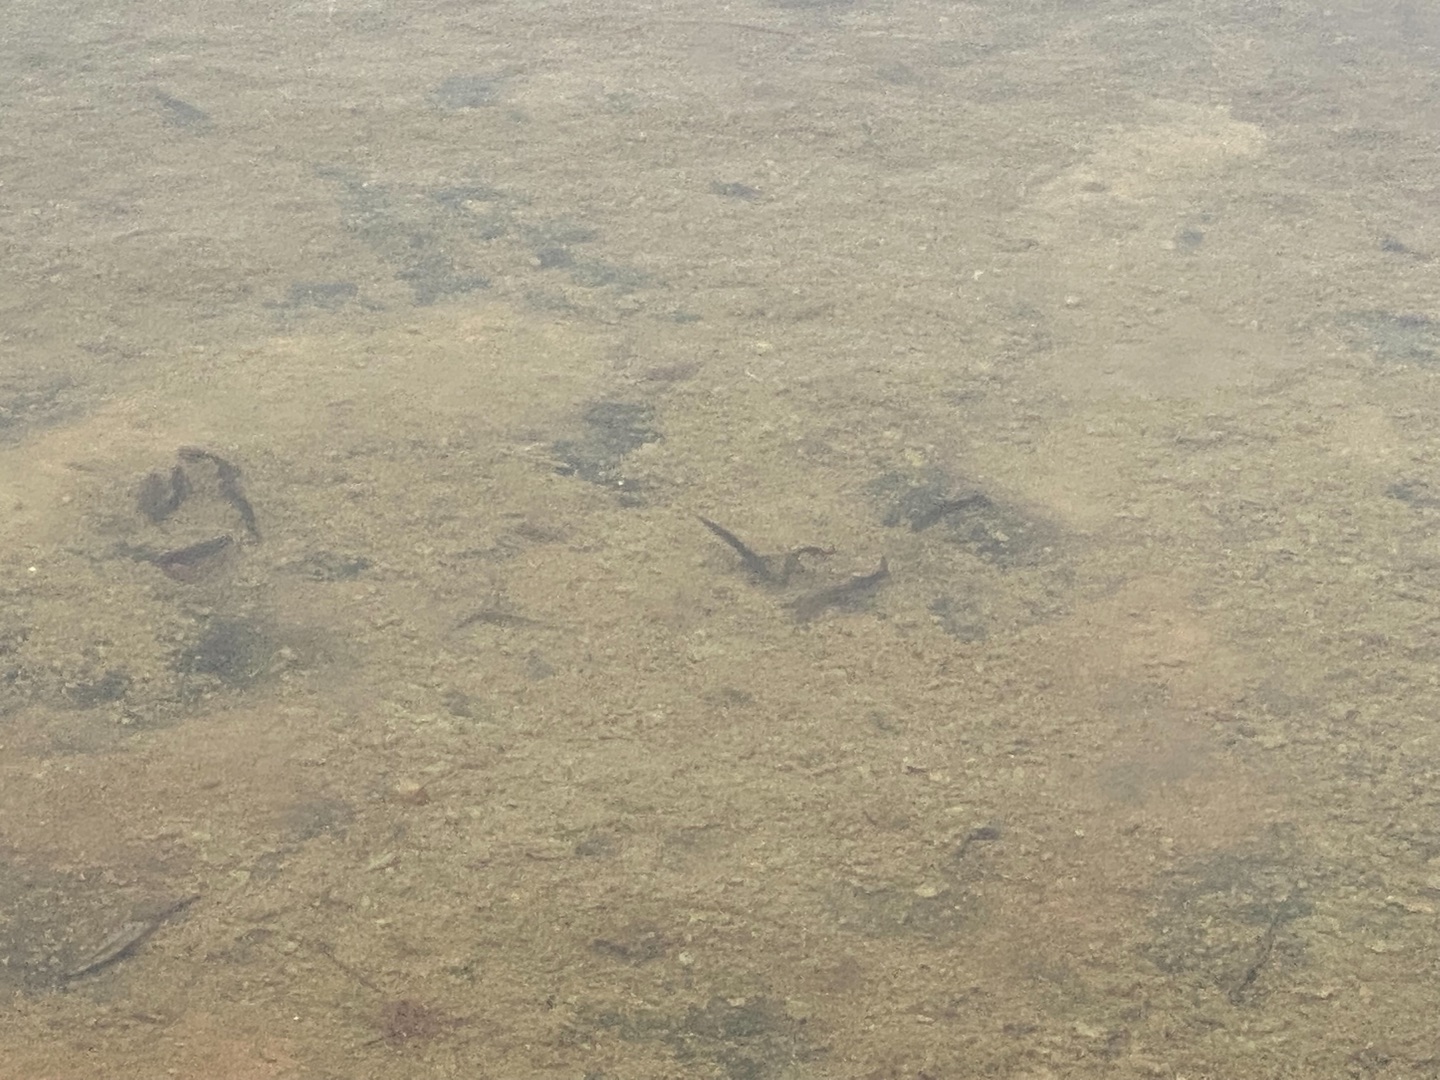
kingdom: Animalia
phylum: Chordata
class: Amphibia
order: Caudata
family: Salamandridae
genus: Lissotriton
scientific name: Lissotriton vulgaris
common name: Lille vandsalamander
